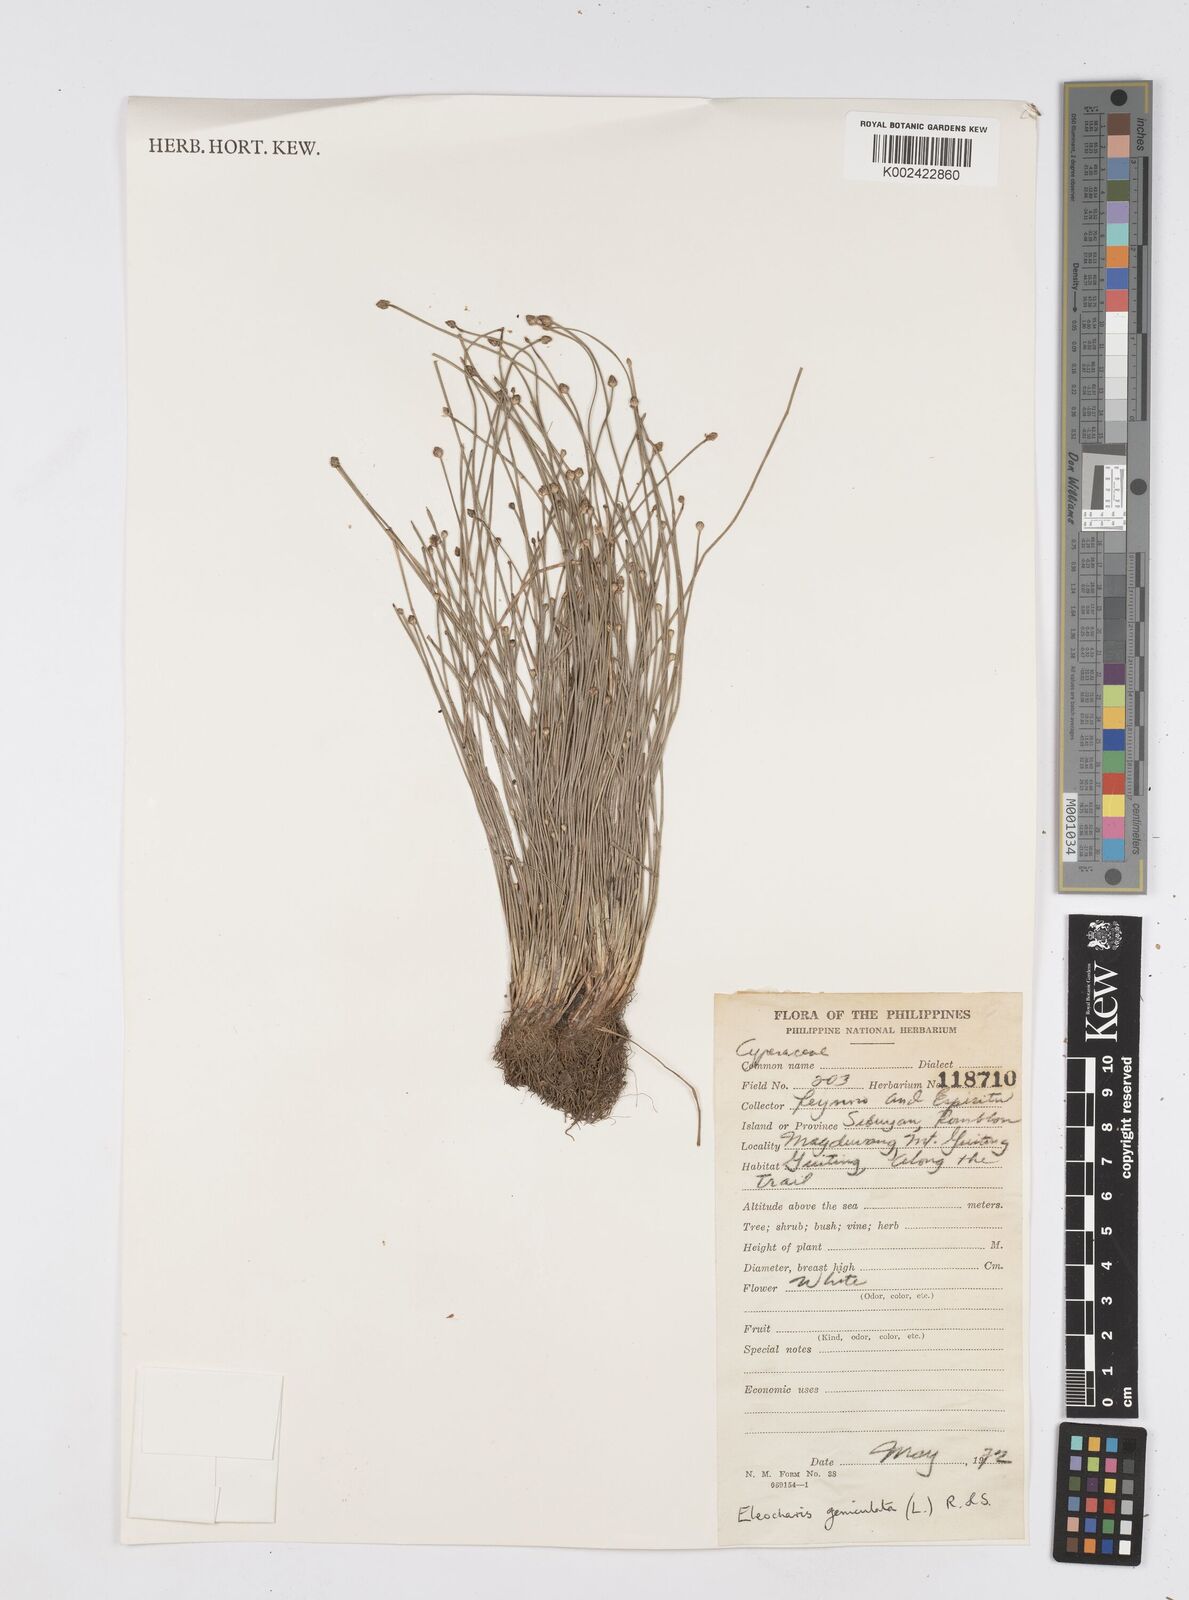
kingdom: Plantae
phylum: Tracheophyta
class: Liliopsida
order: Poales
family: Cyperaceae
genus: Eleocharis
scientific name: Eleocharis geniculata
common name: Canada spikesedge
